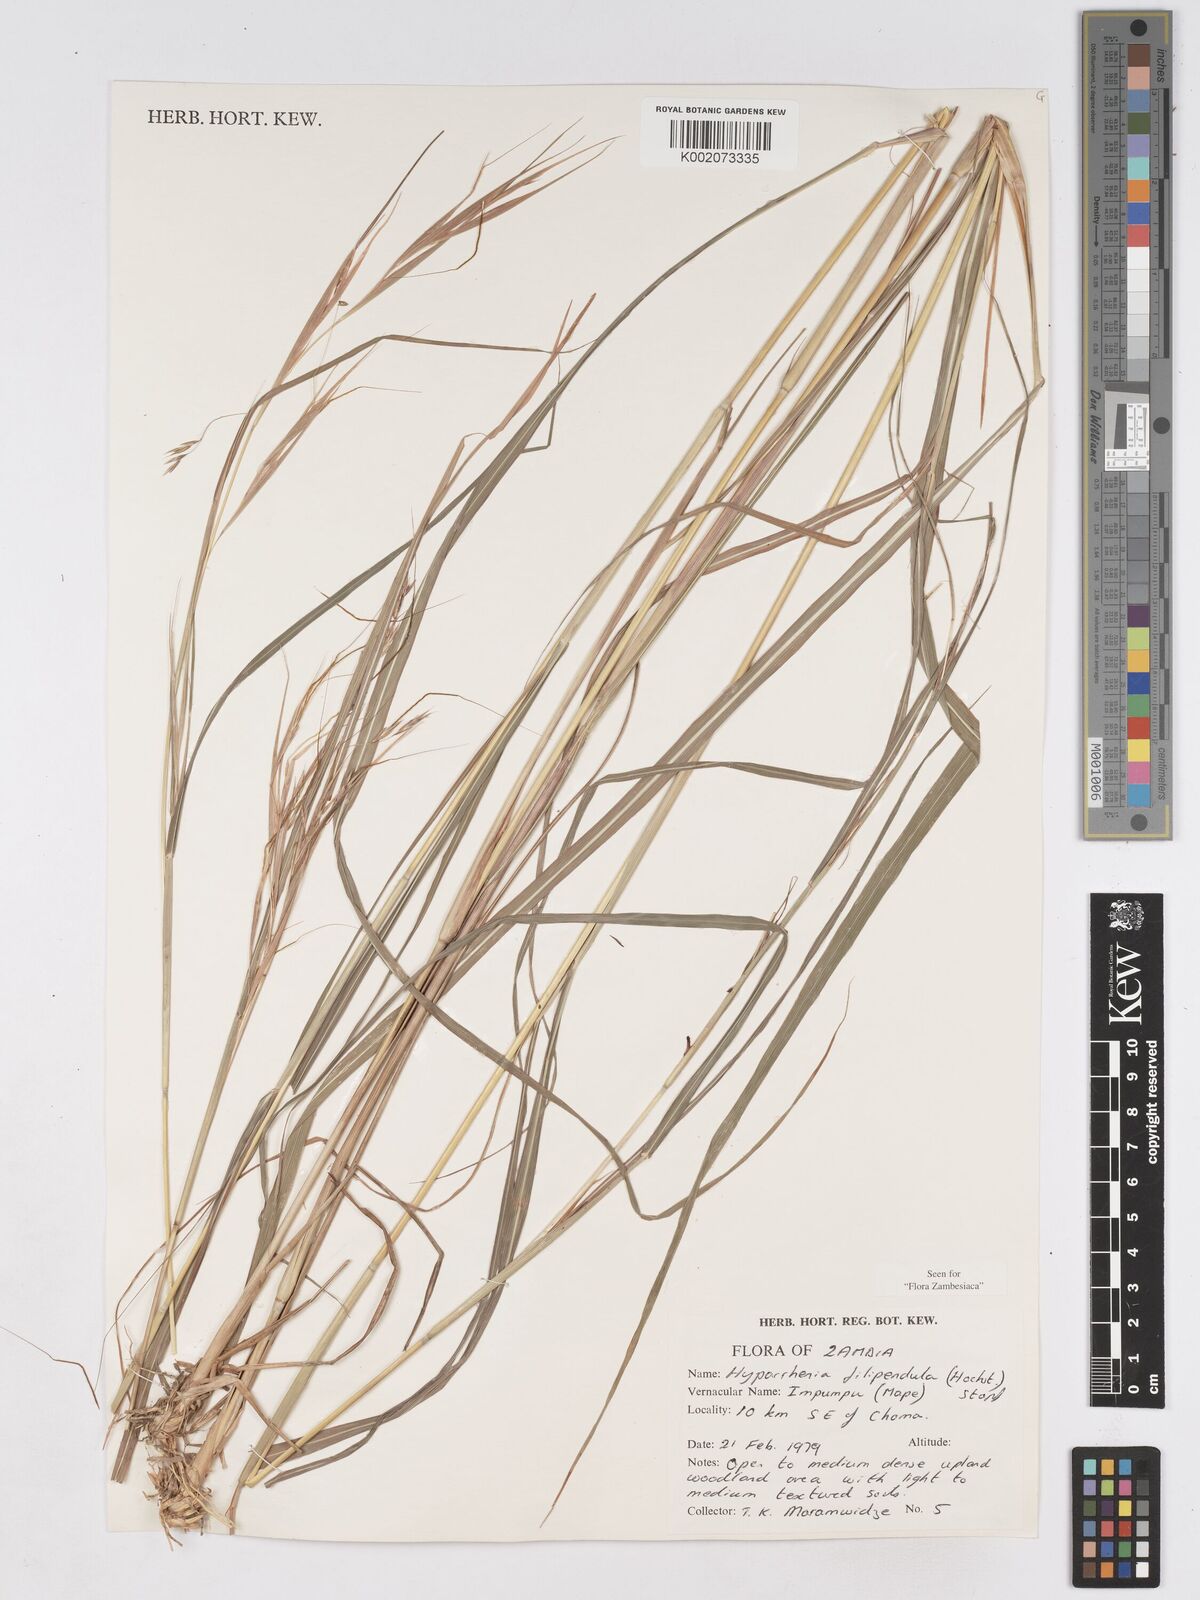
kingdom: Plantae
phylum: Tracheophyta
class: Liliopsida
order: Poales
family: Poaceae
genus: Hyparrhenia
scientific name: Hyparrhenia filipendula
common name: Tambookie grass
